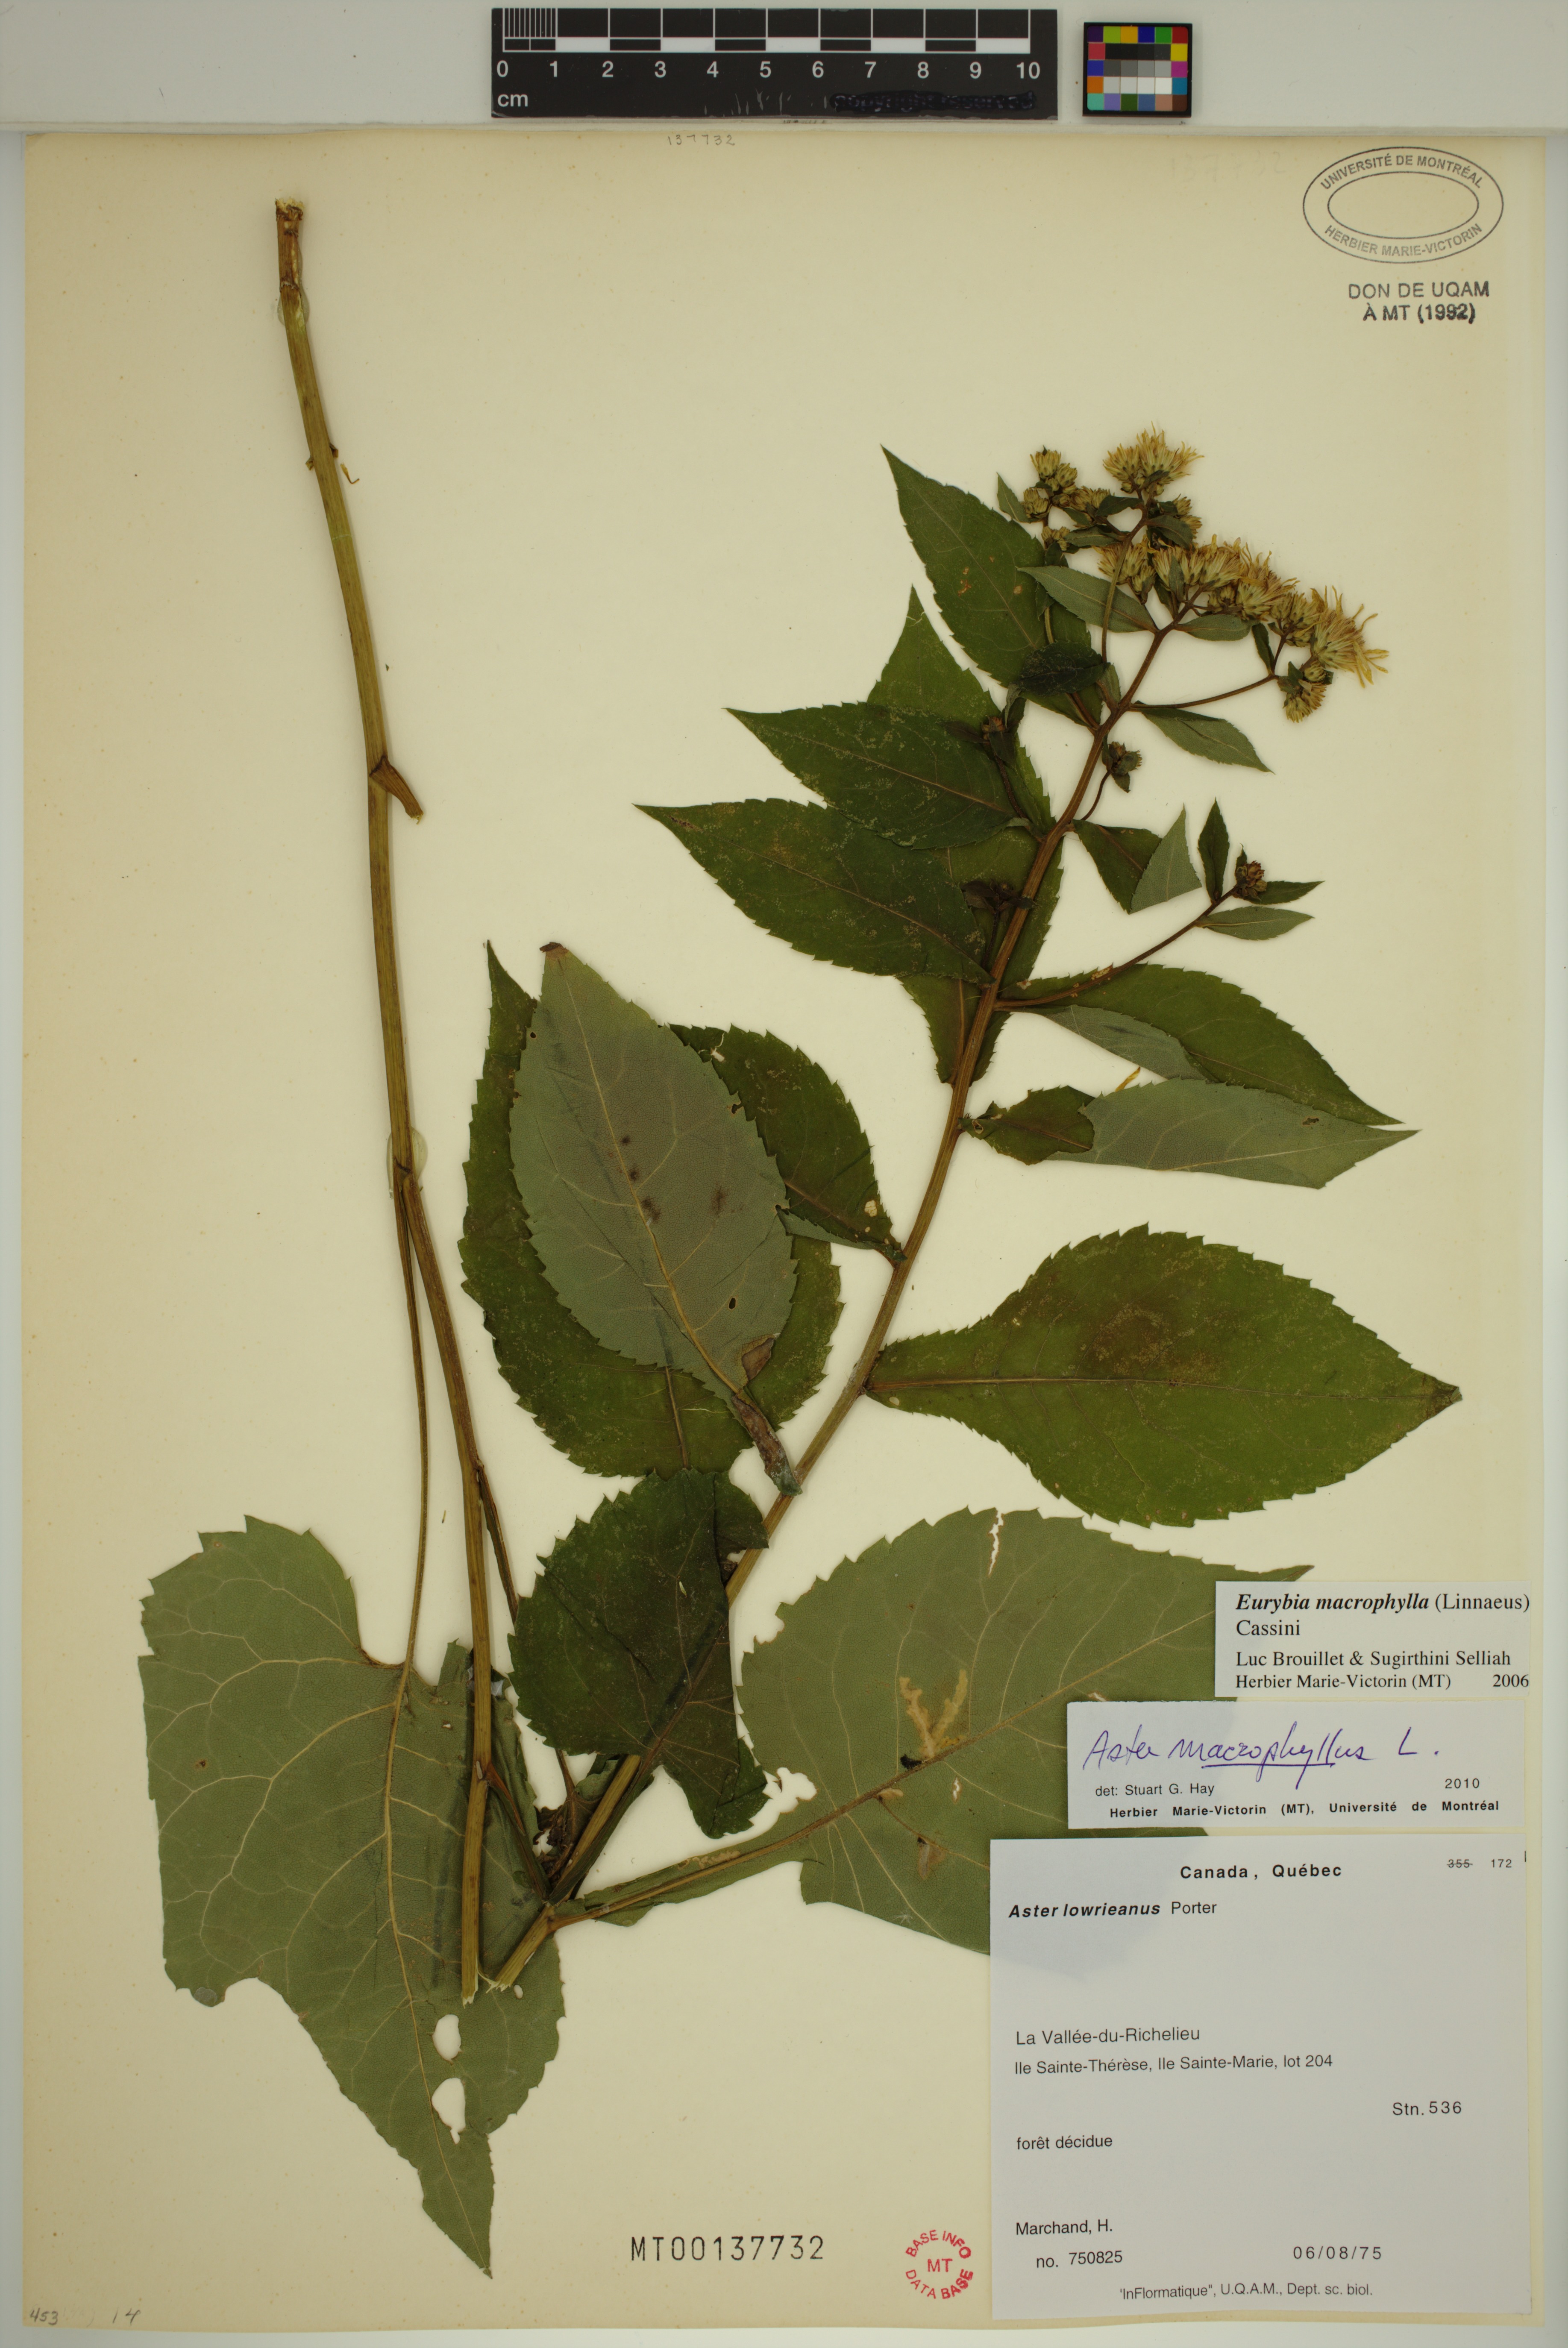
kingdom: Plantae
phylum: Tracheophyta
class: Magnoliopsida
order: Asterales
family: Asteraceae
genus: Eurybia
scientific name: Eurybia macrophylla
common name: Big-leaved aster
